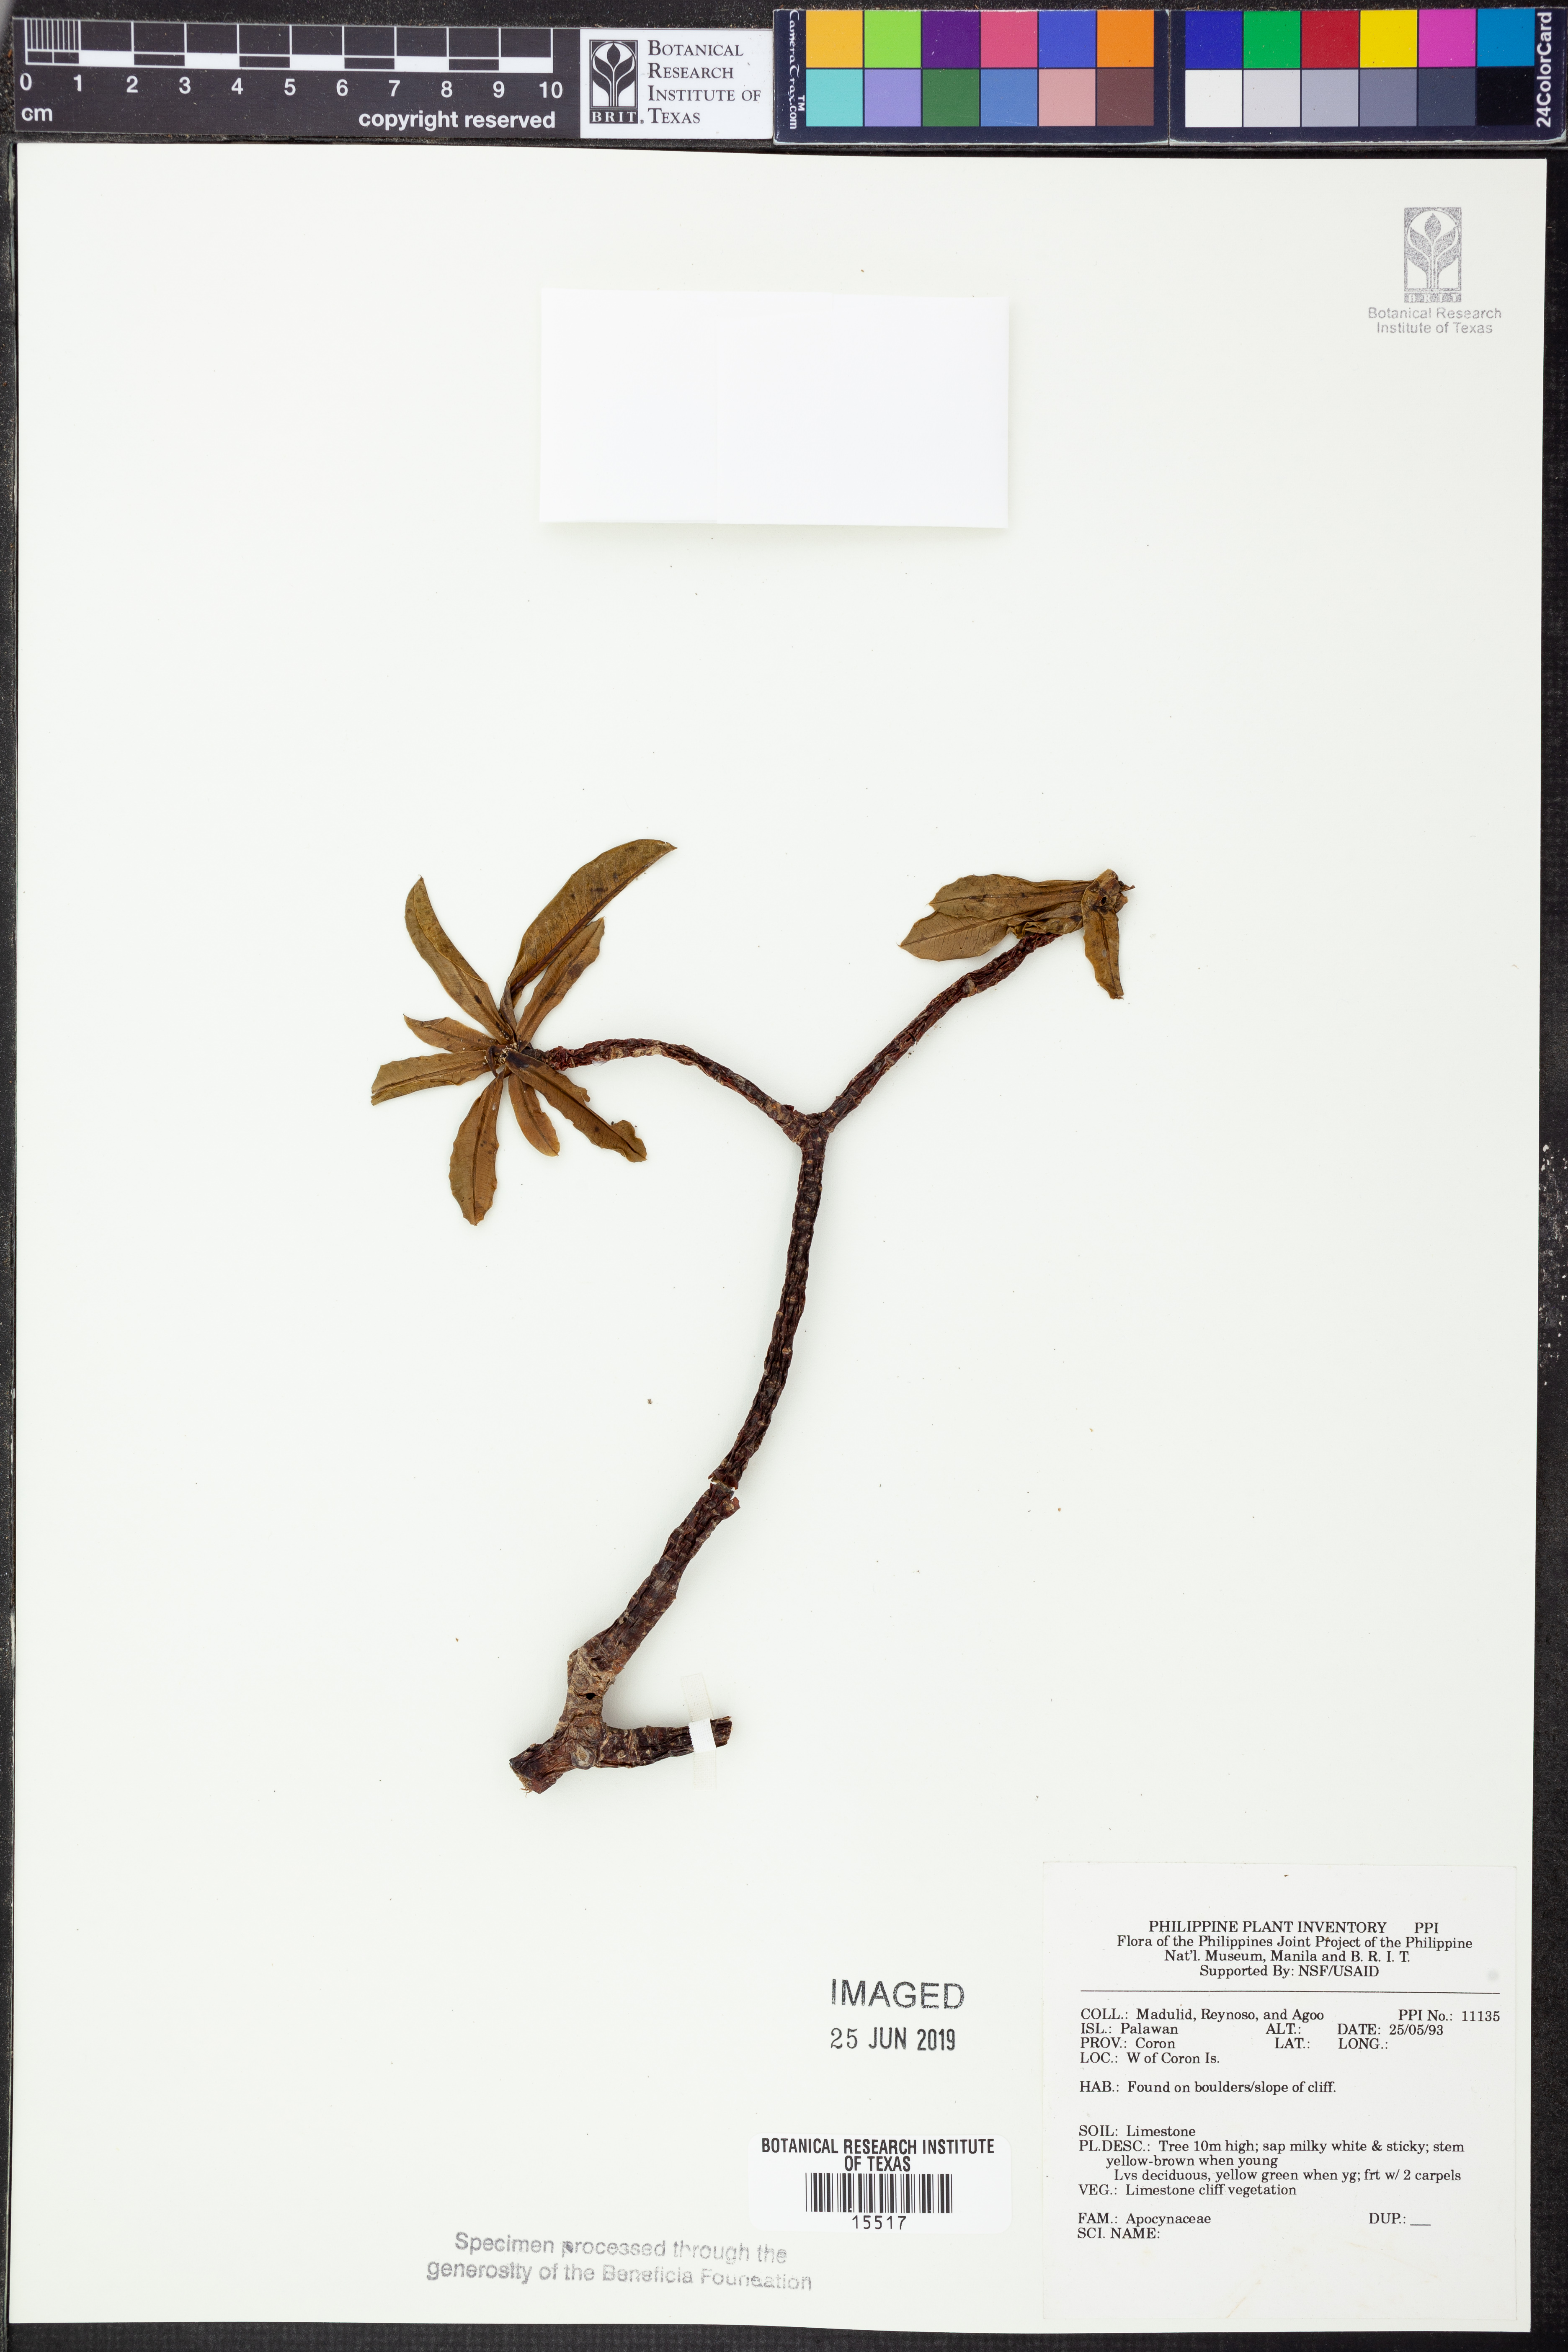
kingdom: Plantae
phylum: Tracheophyta
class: Magnoliopsida
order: Gentianales
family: Apocynaceae
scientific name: Apocynaceae
